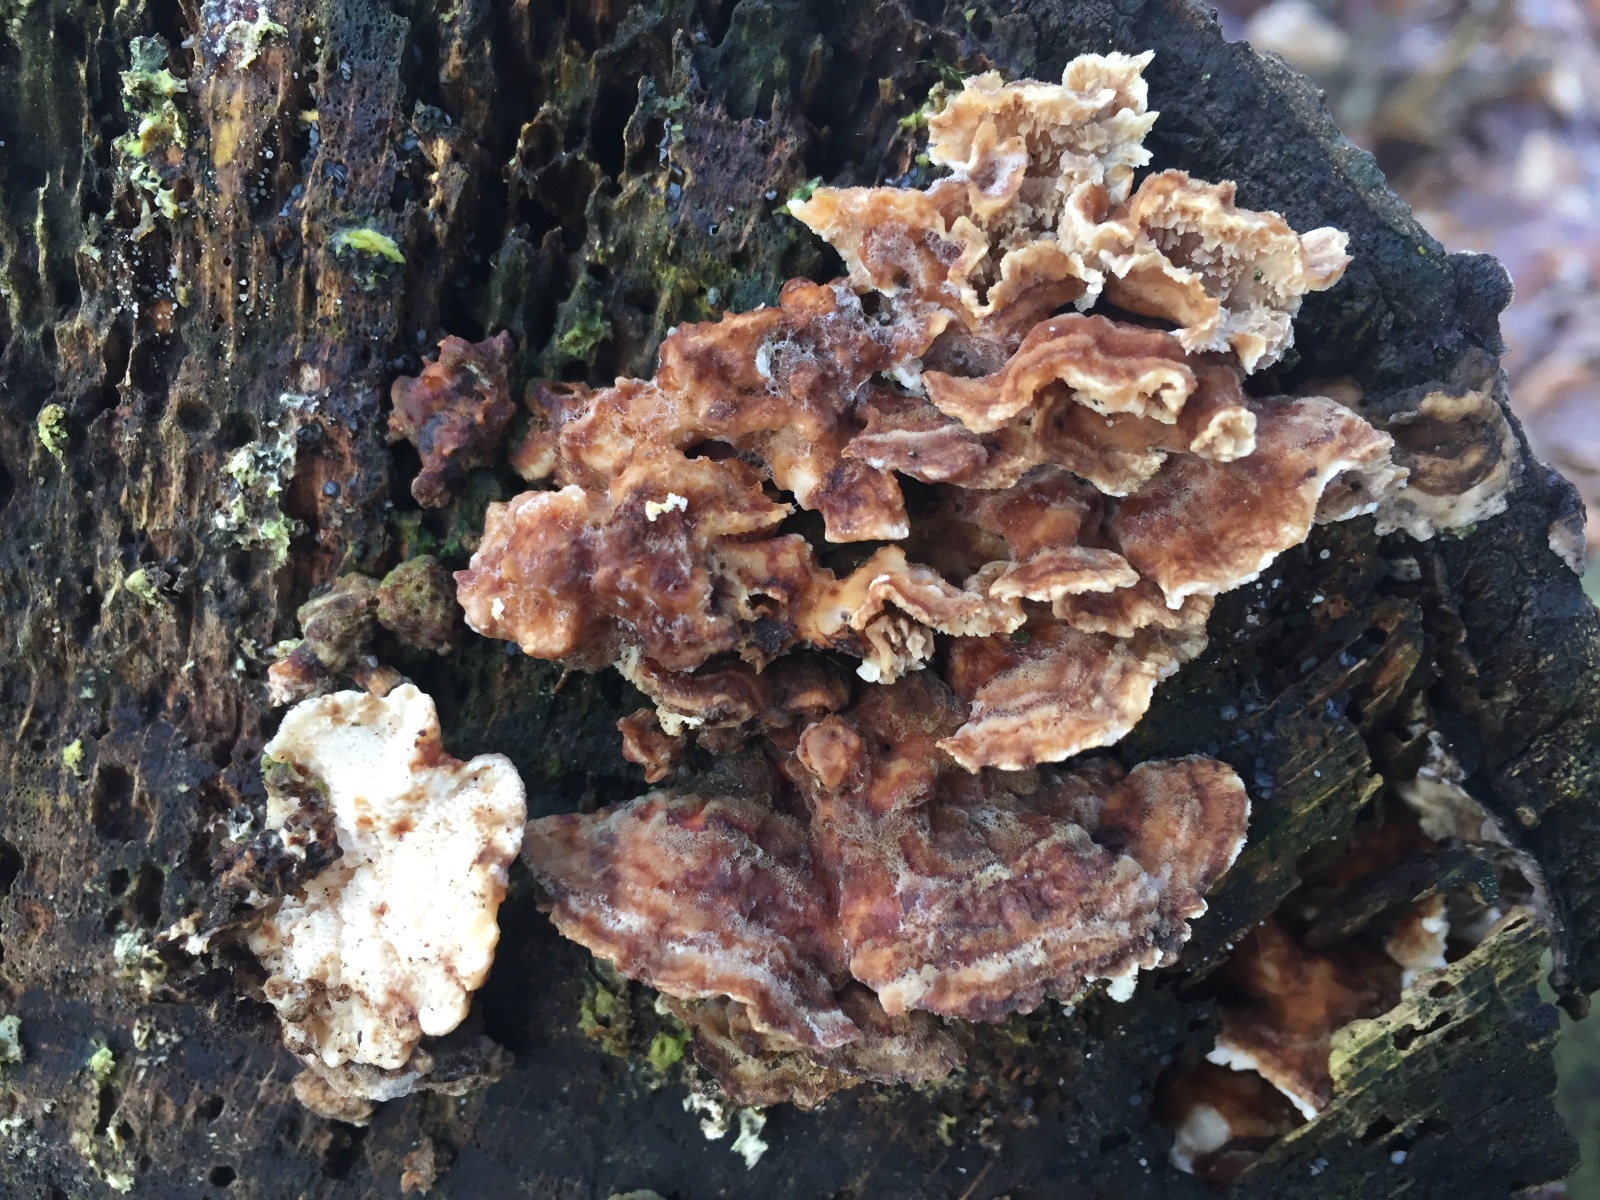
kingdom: Fungi
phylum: Basidiomycota
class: Agaricomycetes
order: Polyporales
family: Polyporaceae
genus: Trametes
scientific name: Trametes versicolor
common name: broget læderporesvamp
